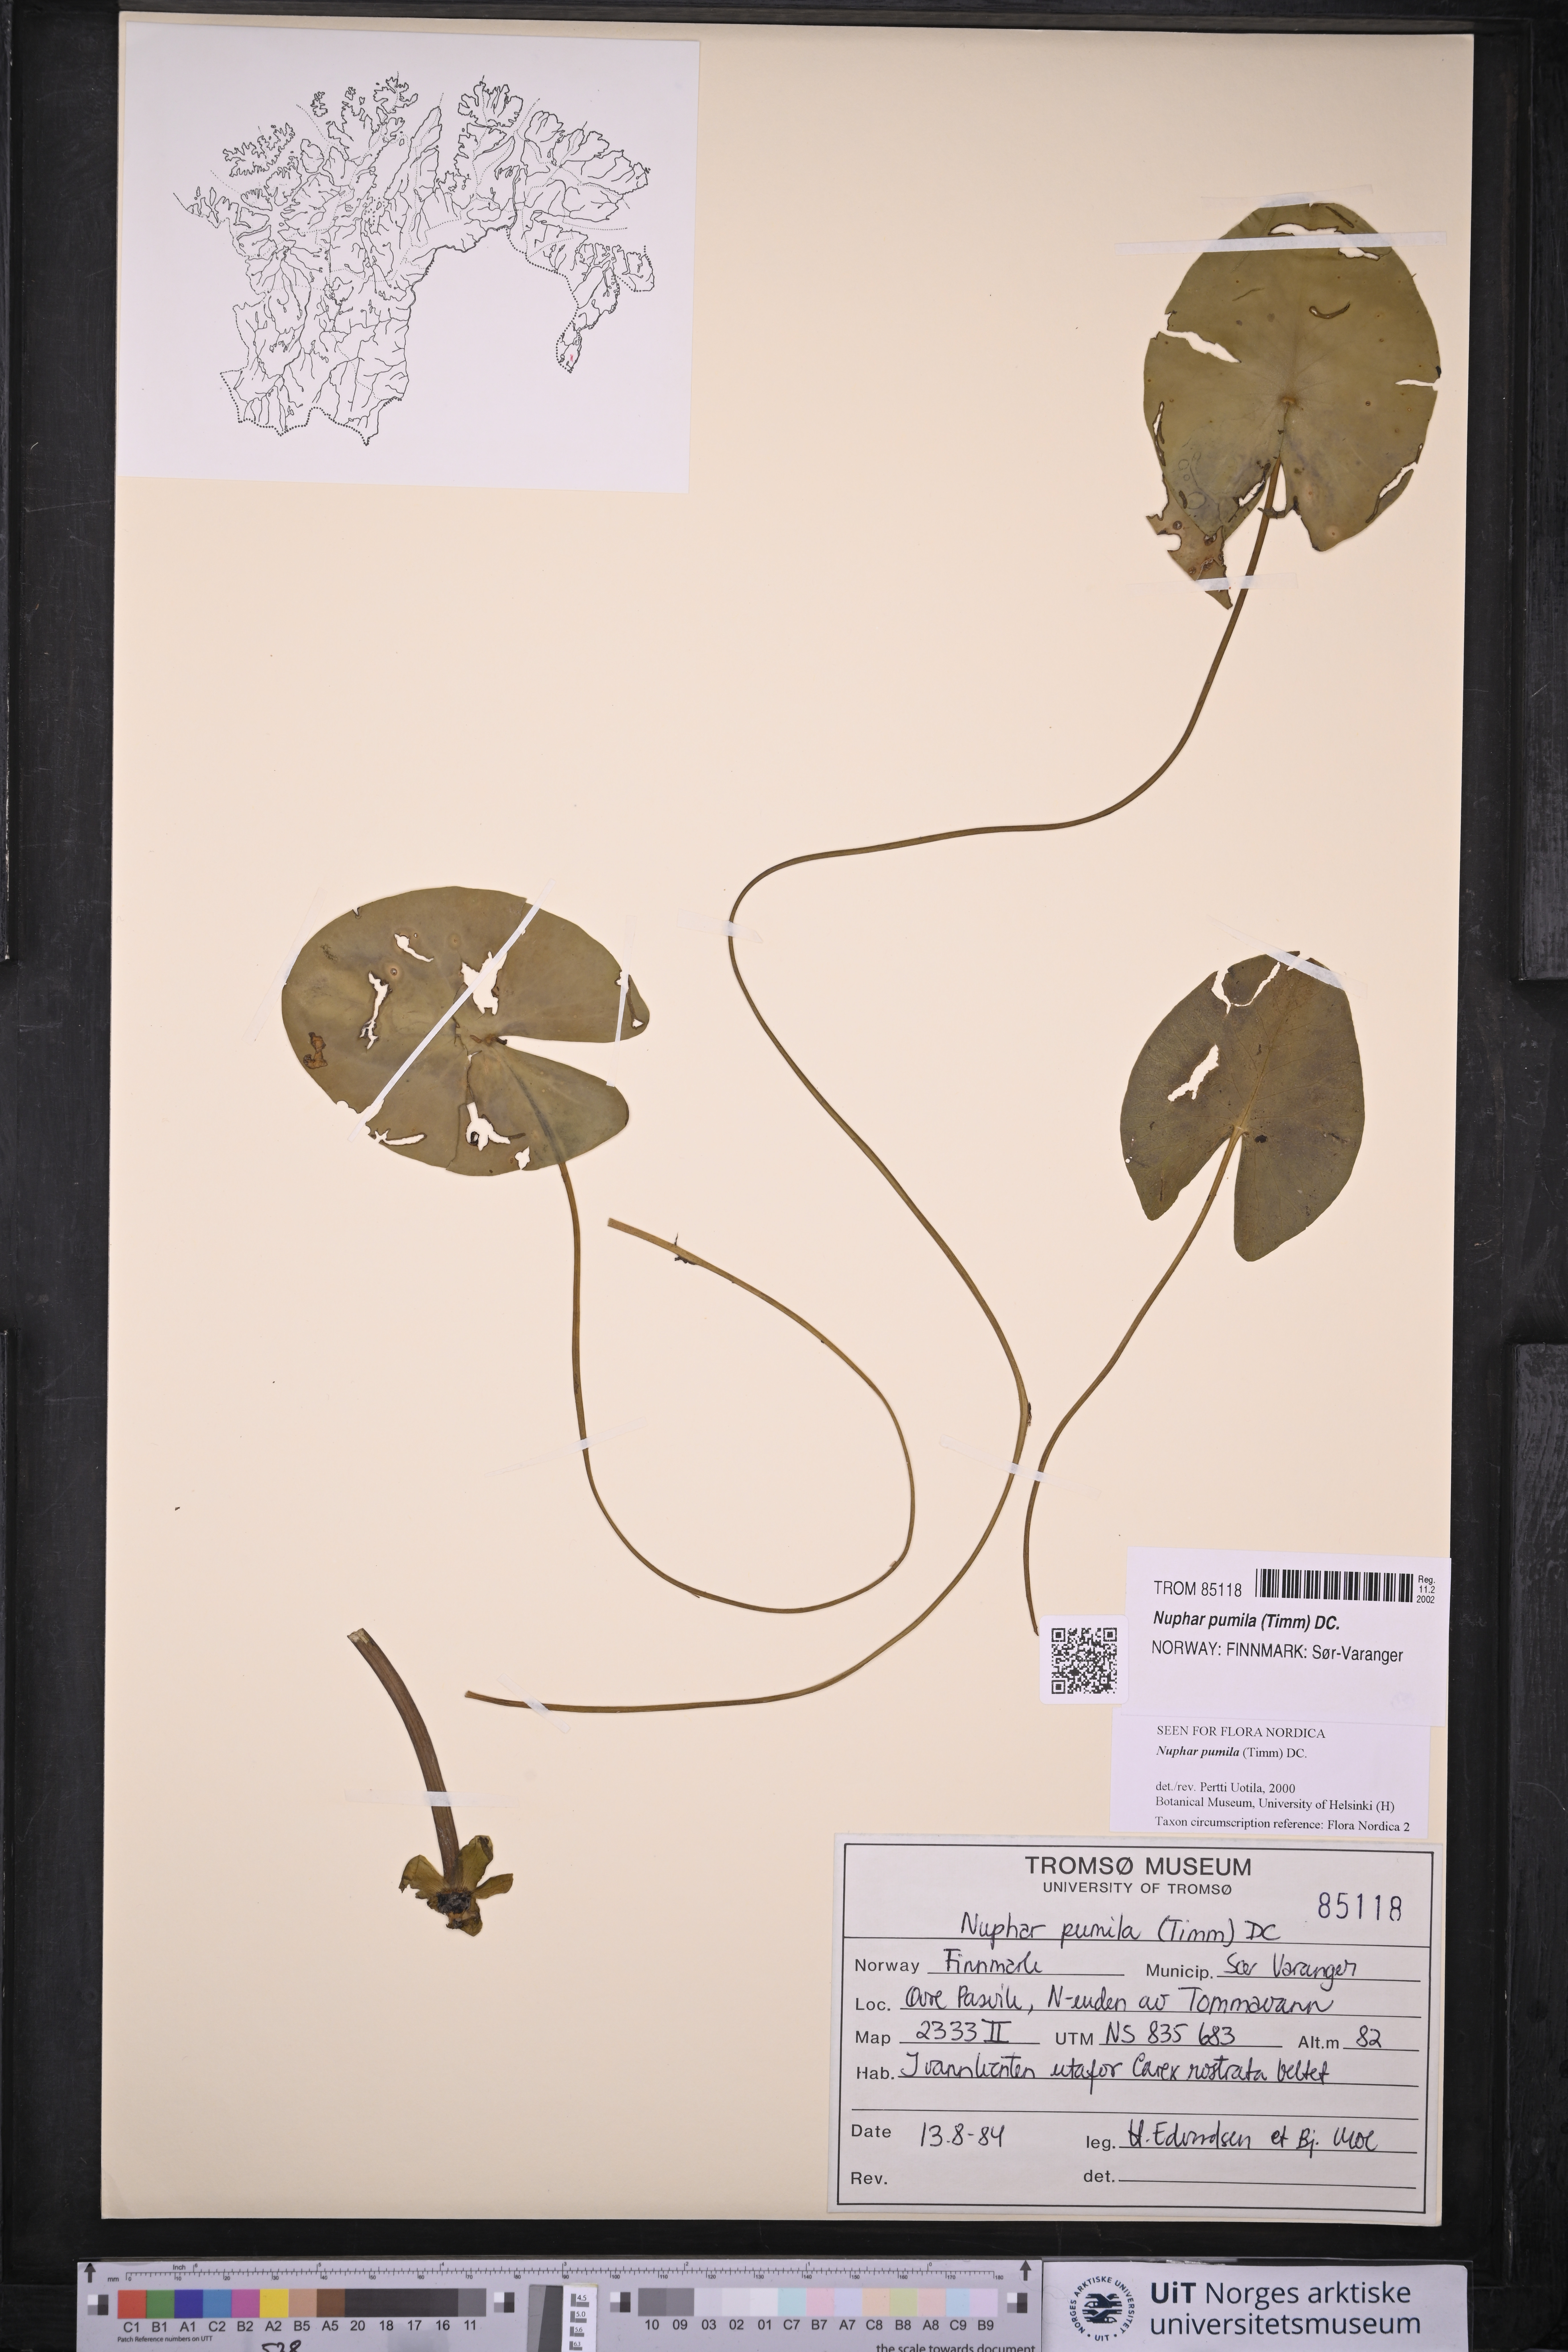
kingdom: Plantae
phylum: Tracheophyta
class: Magnoliopsida
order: Nymphaeales
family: Nymphaeaceae
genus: Nuphar
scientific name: Nuphar pumila
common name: Least water-lily
